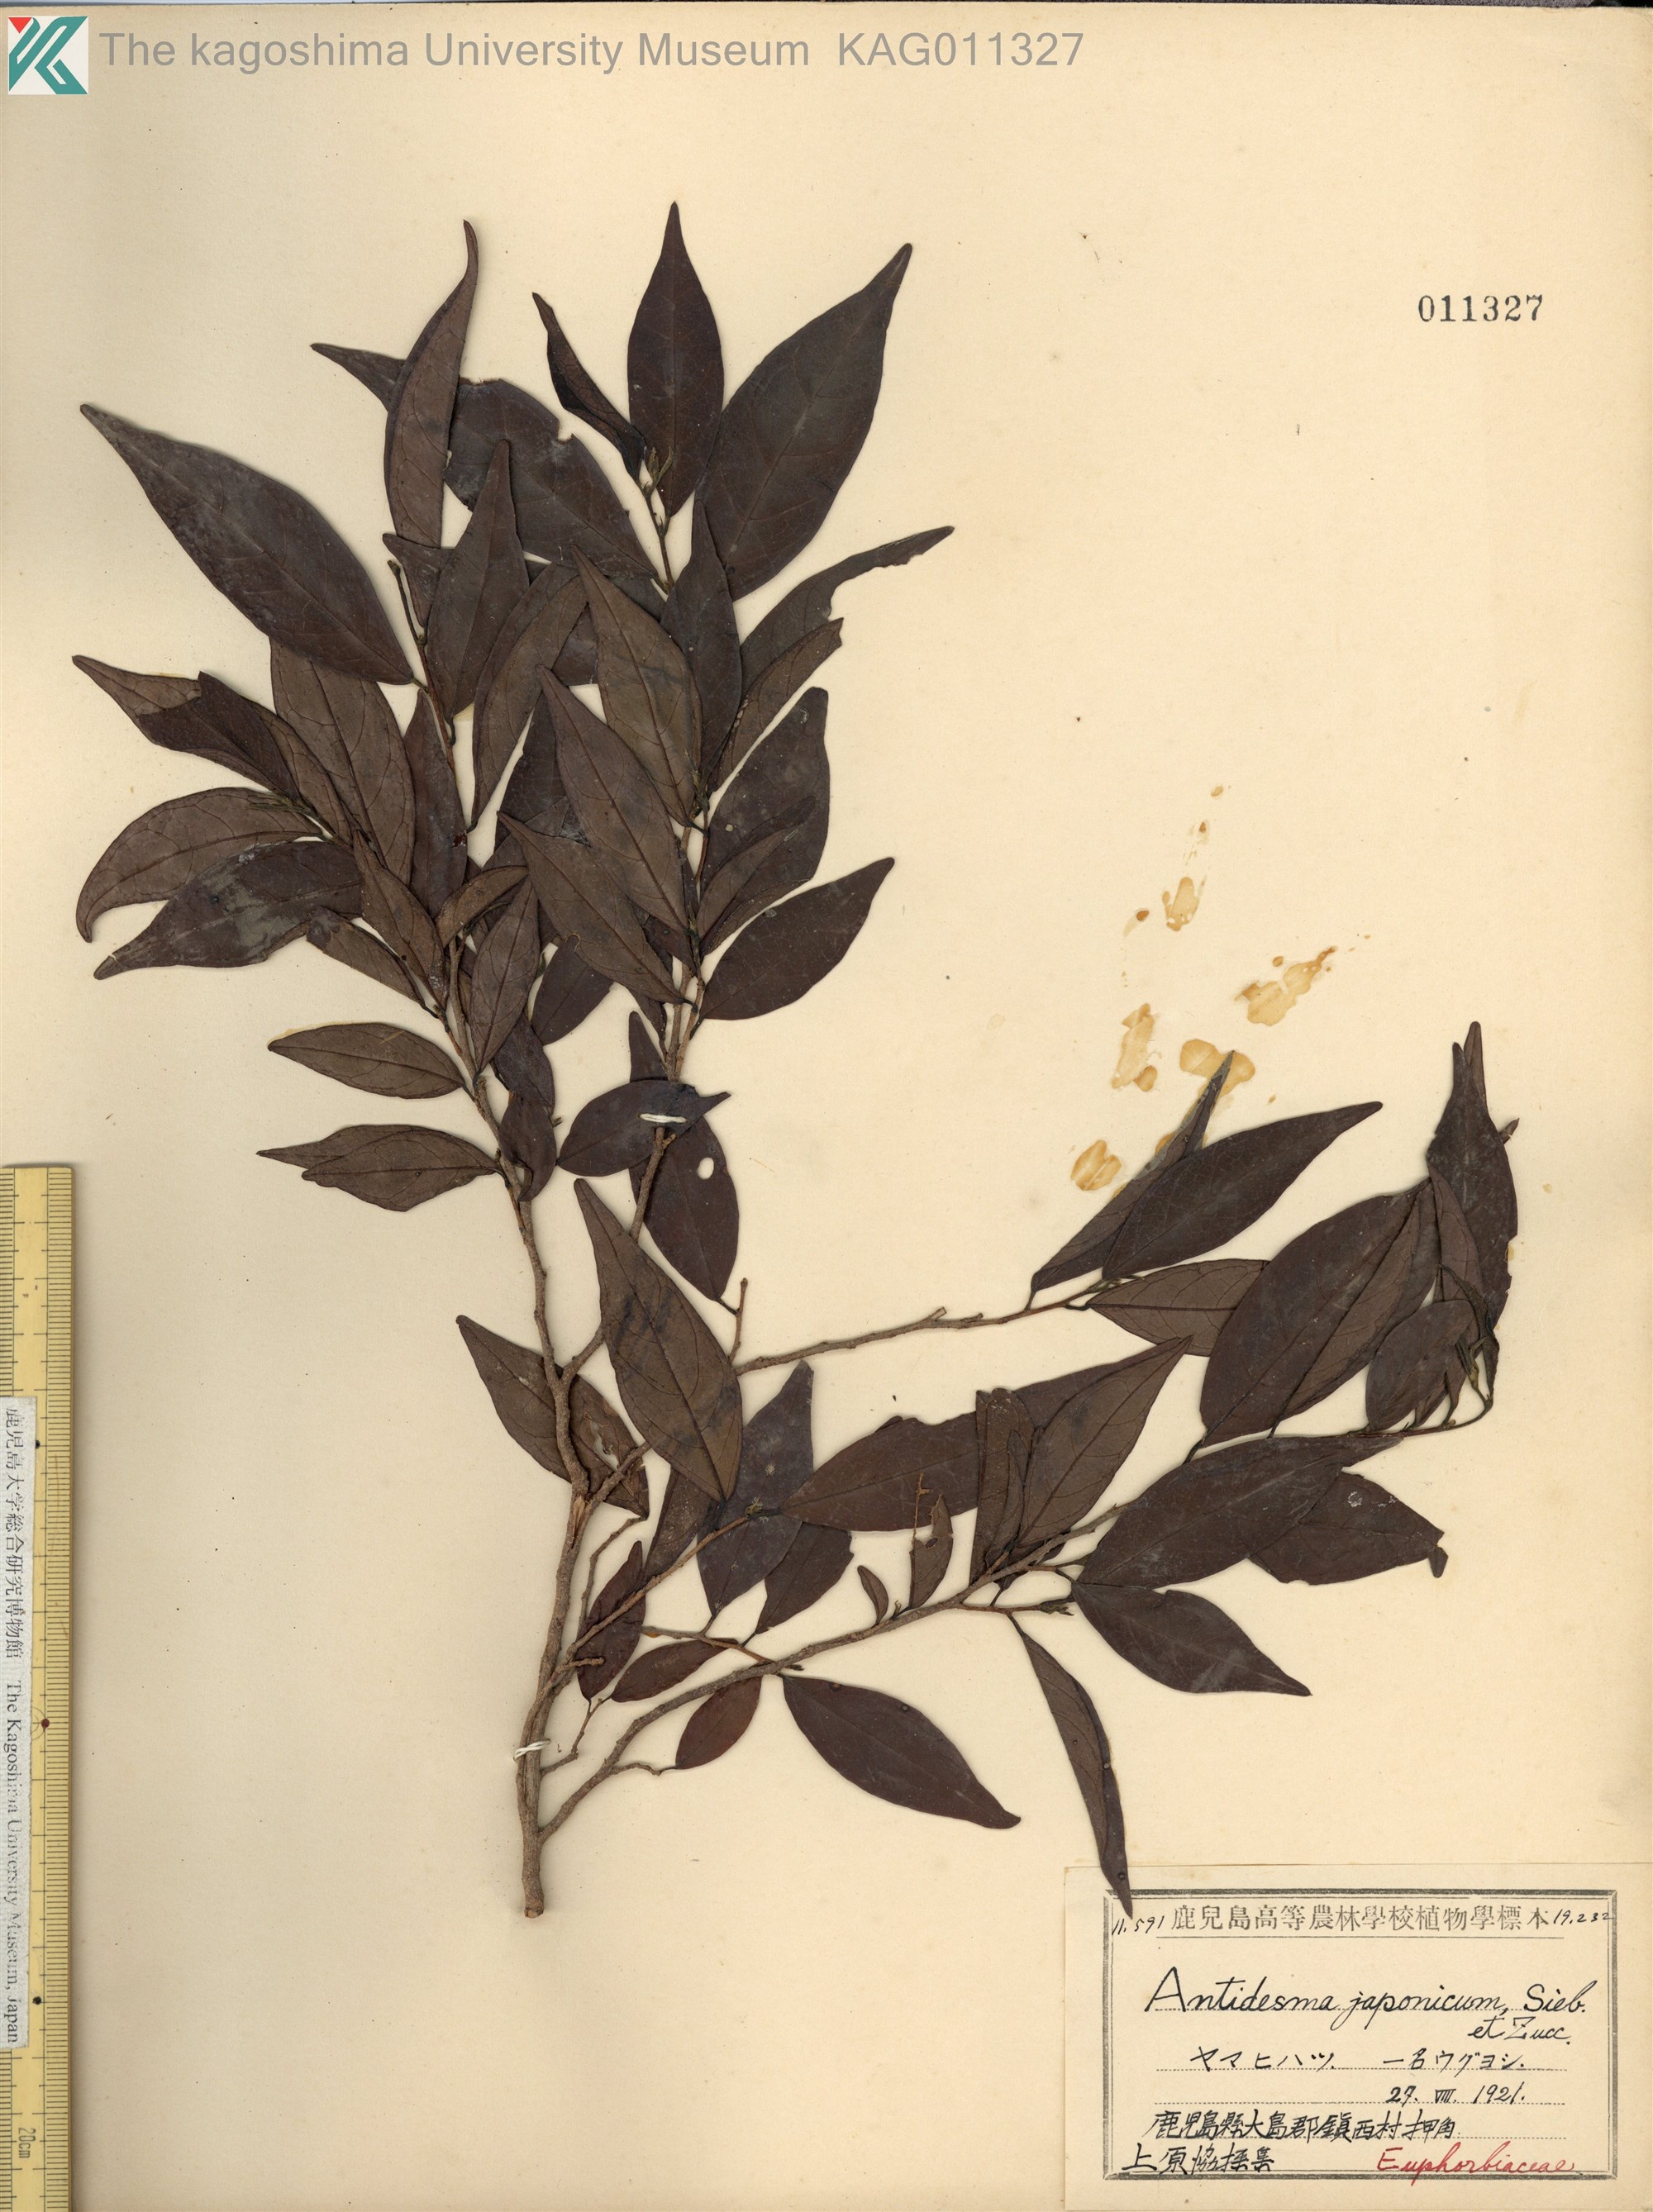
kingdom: Plantae
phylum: Tracheophyta
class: Magnoliopsida
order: Malpighiales
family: Phyllanthaceae
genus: Antidesma
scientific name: Antidesma japonicum
